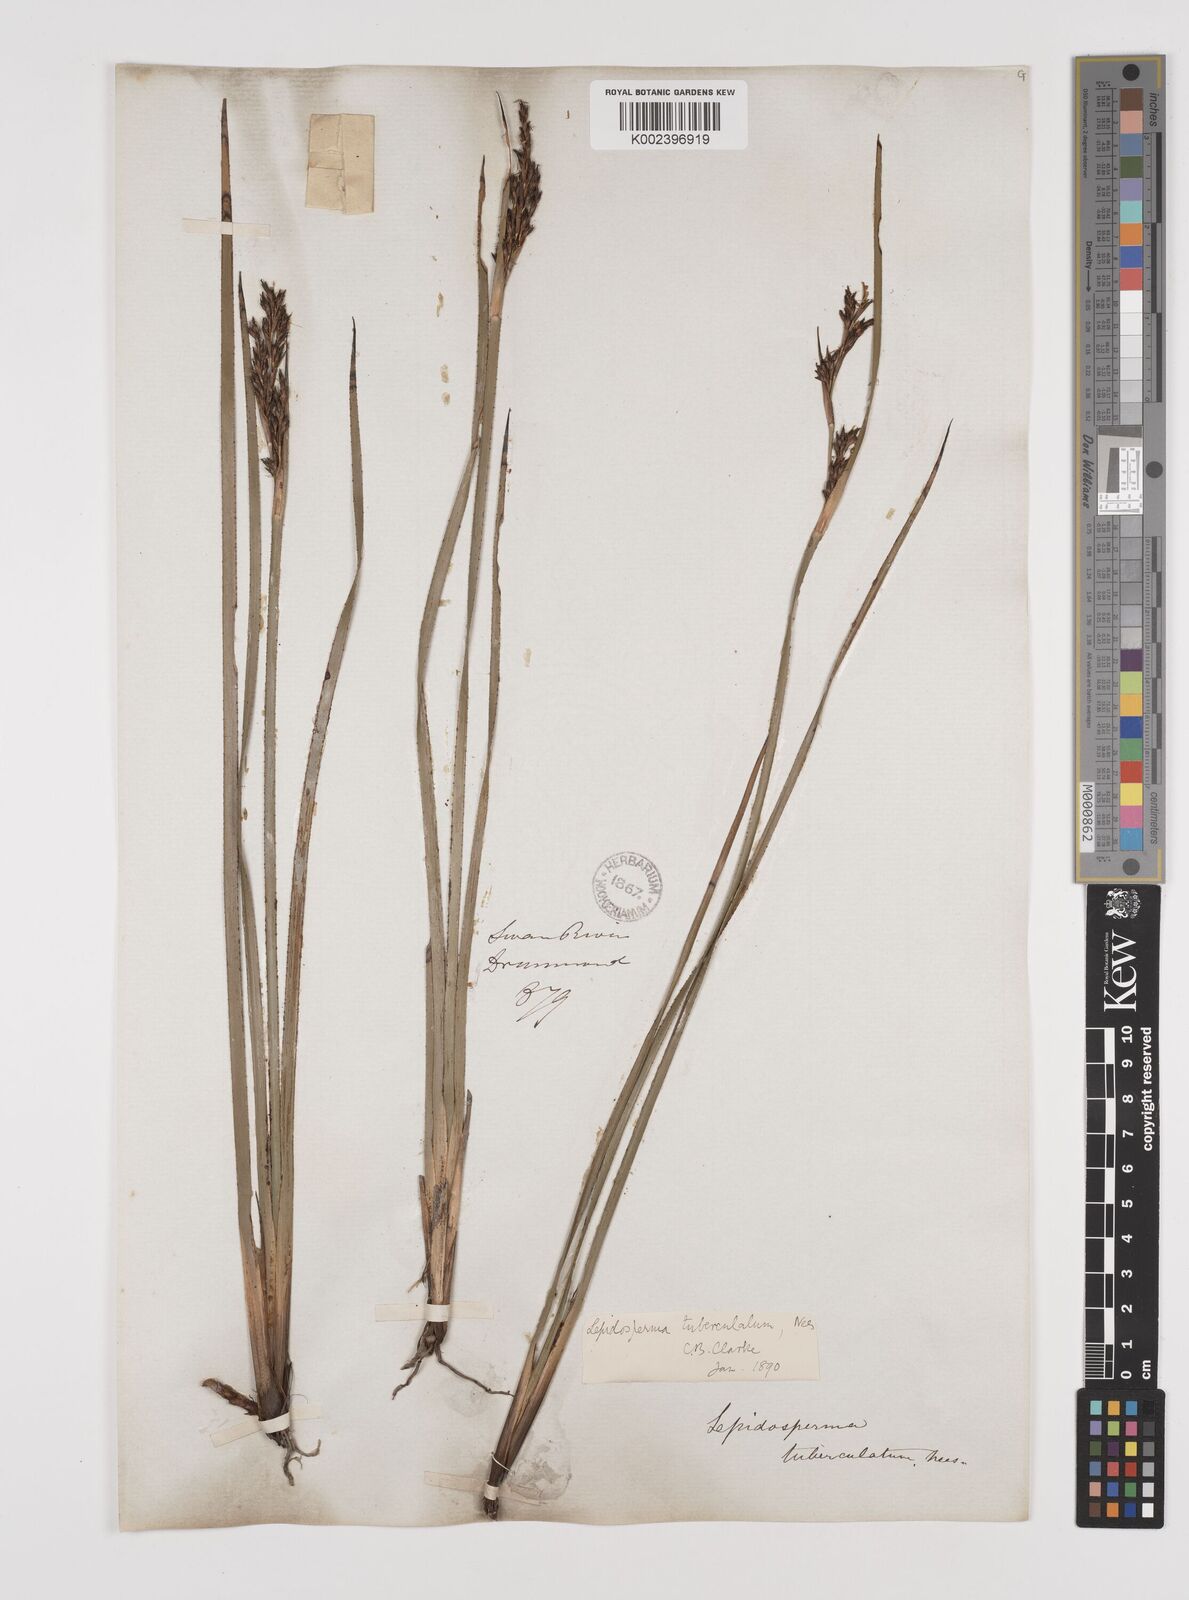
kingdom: Plantae
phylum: Tracheophyta
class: Liliopsida
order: Poales
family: Cyperaceae
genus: Lepidosperma
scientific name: Lepidosperma tuberculatum
